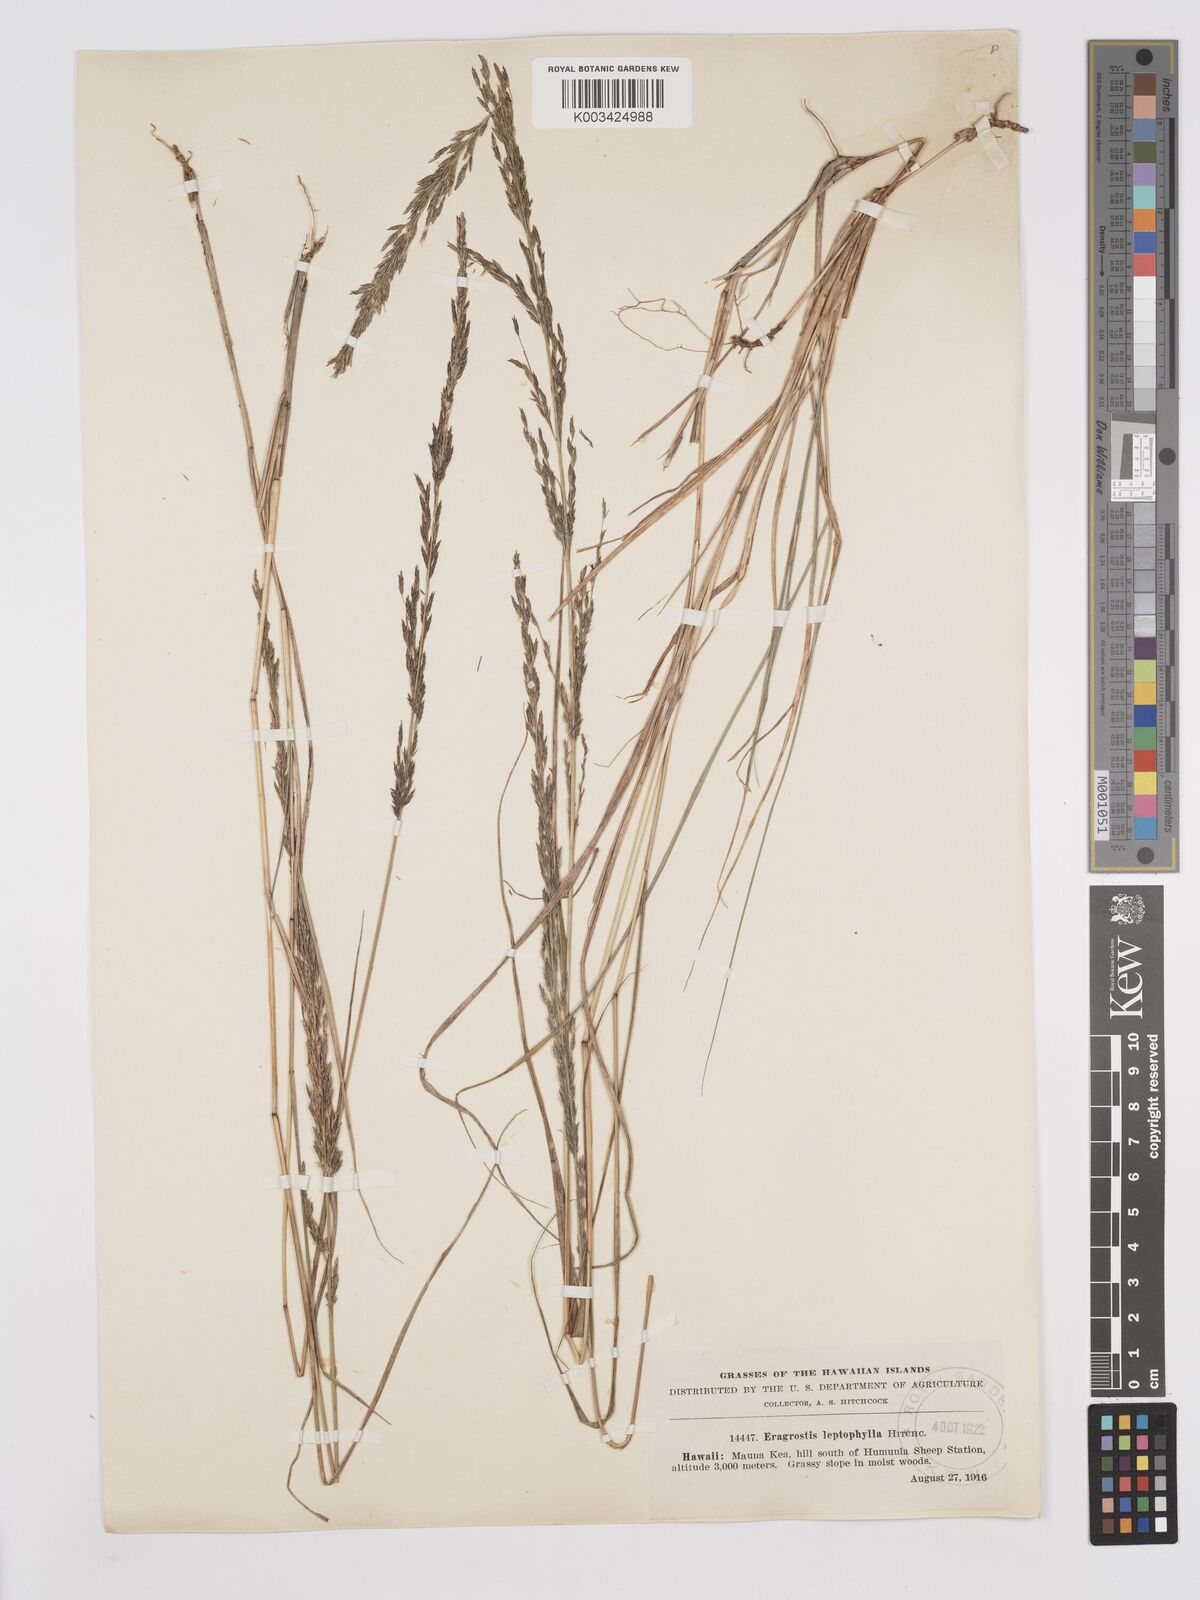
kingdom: Plantae
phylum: Tracheophyta
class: Liliopsida
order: Poales
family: Poaceae
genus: Eragrostis
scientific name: Eragrostis leptophylla
